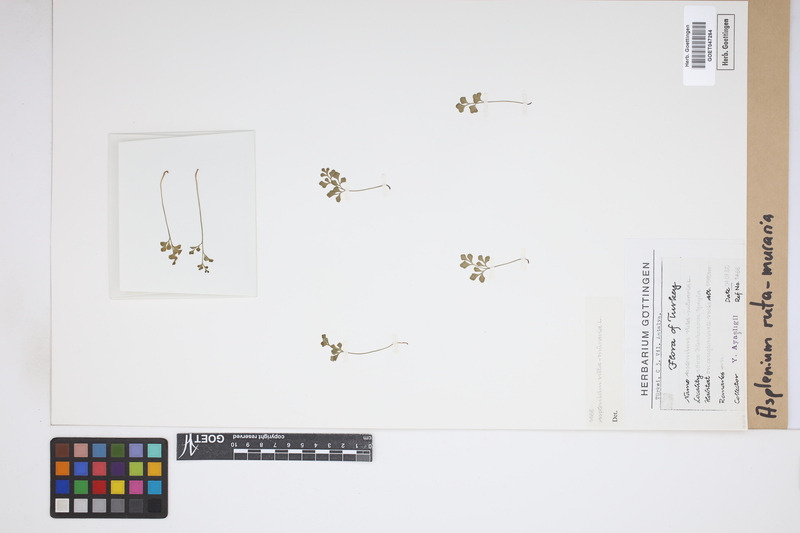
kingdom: Plantae
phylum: Tracheophyta
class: Polypodiopsida
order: Polypodiales
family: Aspleniaceae
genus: Asplenium
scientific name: Asplenium ruta-muraria
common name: Wall-rue
